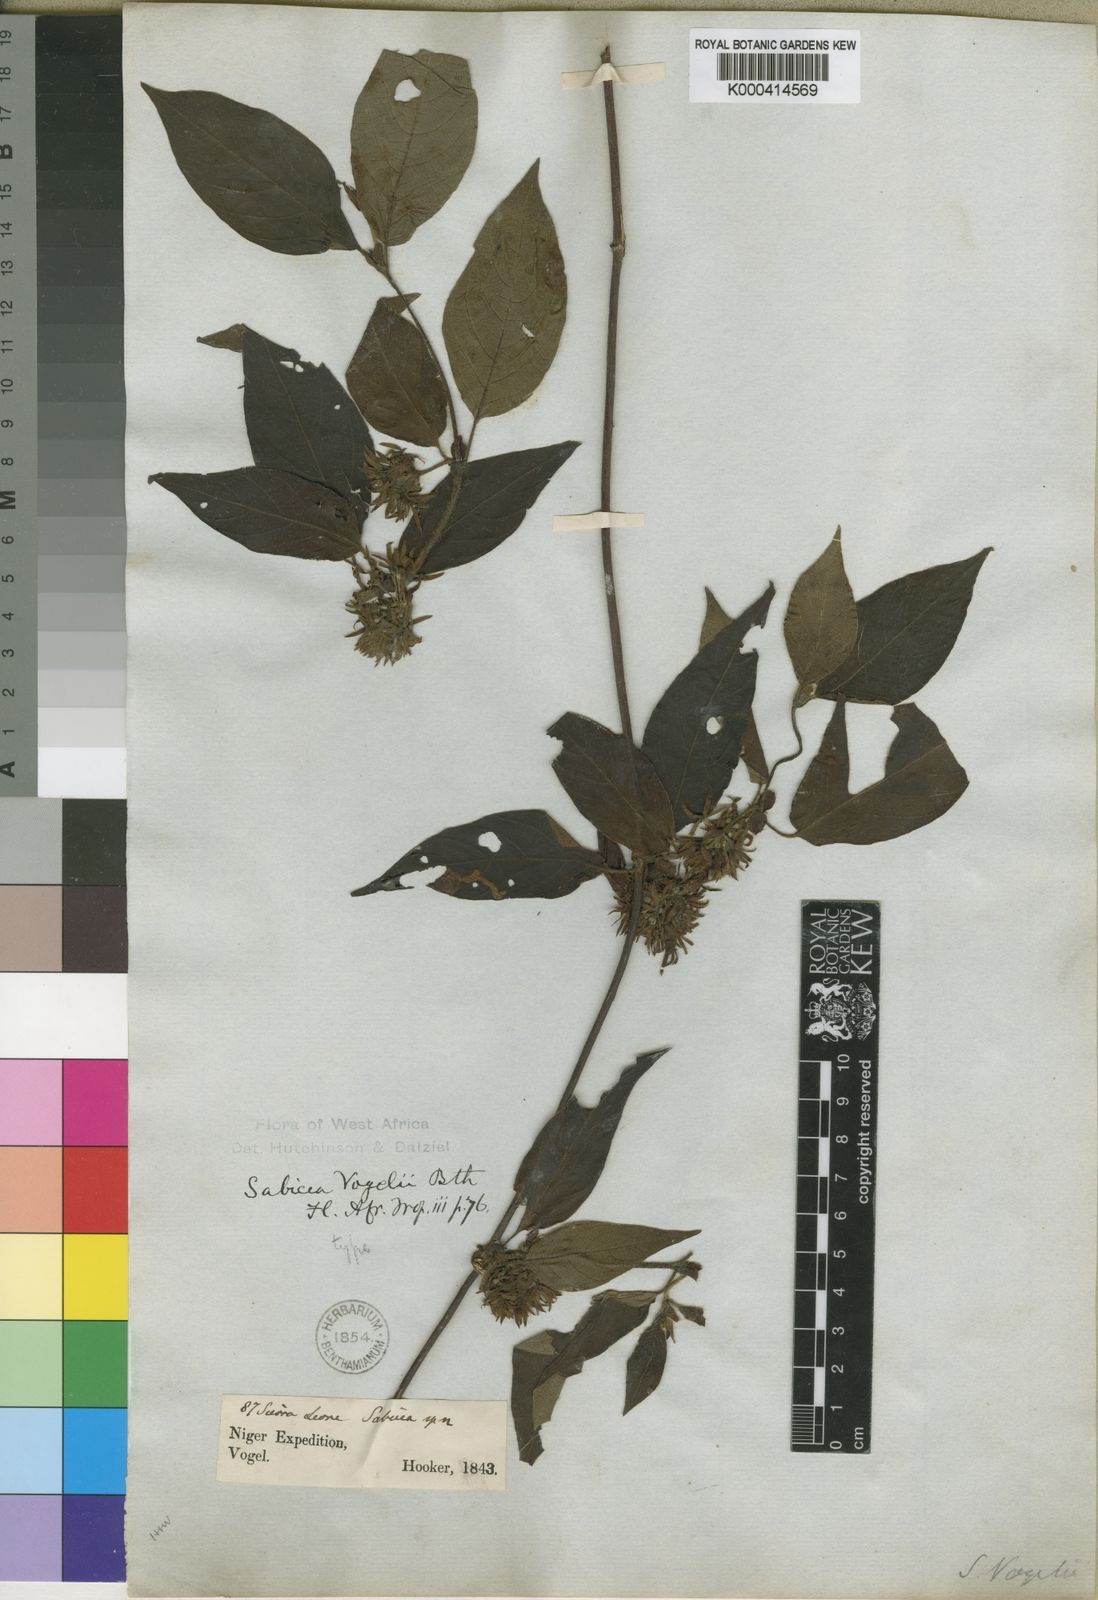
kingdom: Plantae
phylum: Tracheophyta
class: Magnoliopsida
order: Gentianales
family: Rubiaceae
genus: Sabicea
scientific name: Sabicea ferruginea
